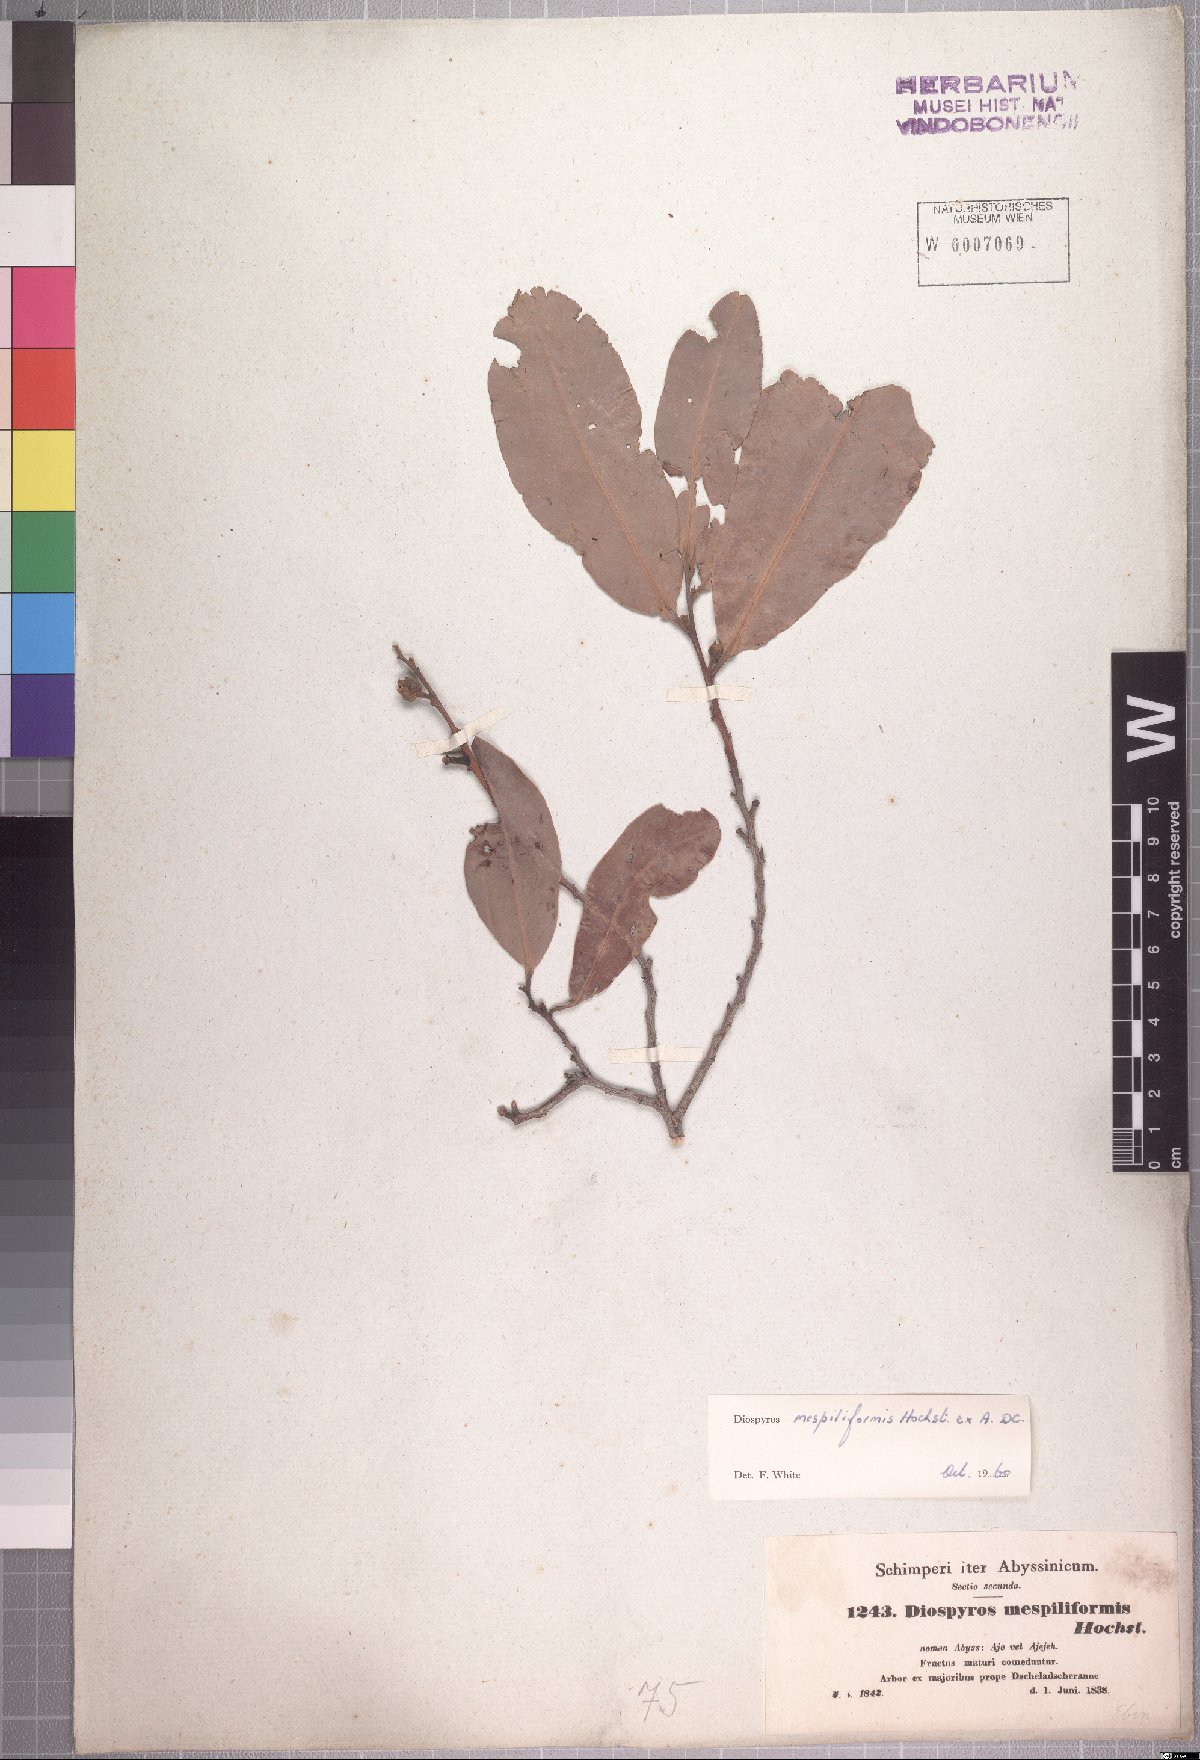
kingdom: Plantae
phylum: Tracheophyta
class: Magnoliopsida
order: Ericales
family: Ebenaceae
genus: Diospyros
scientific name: Diospyros mespiliformis
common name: Ebony diospyros
